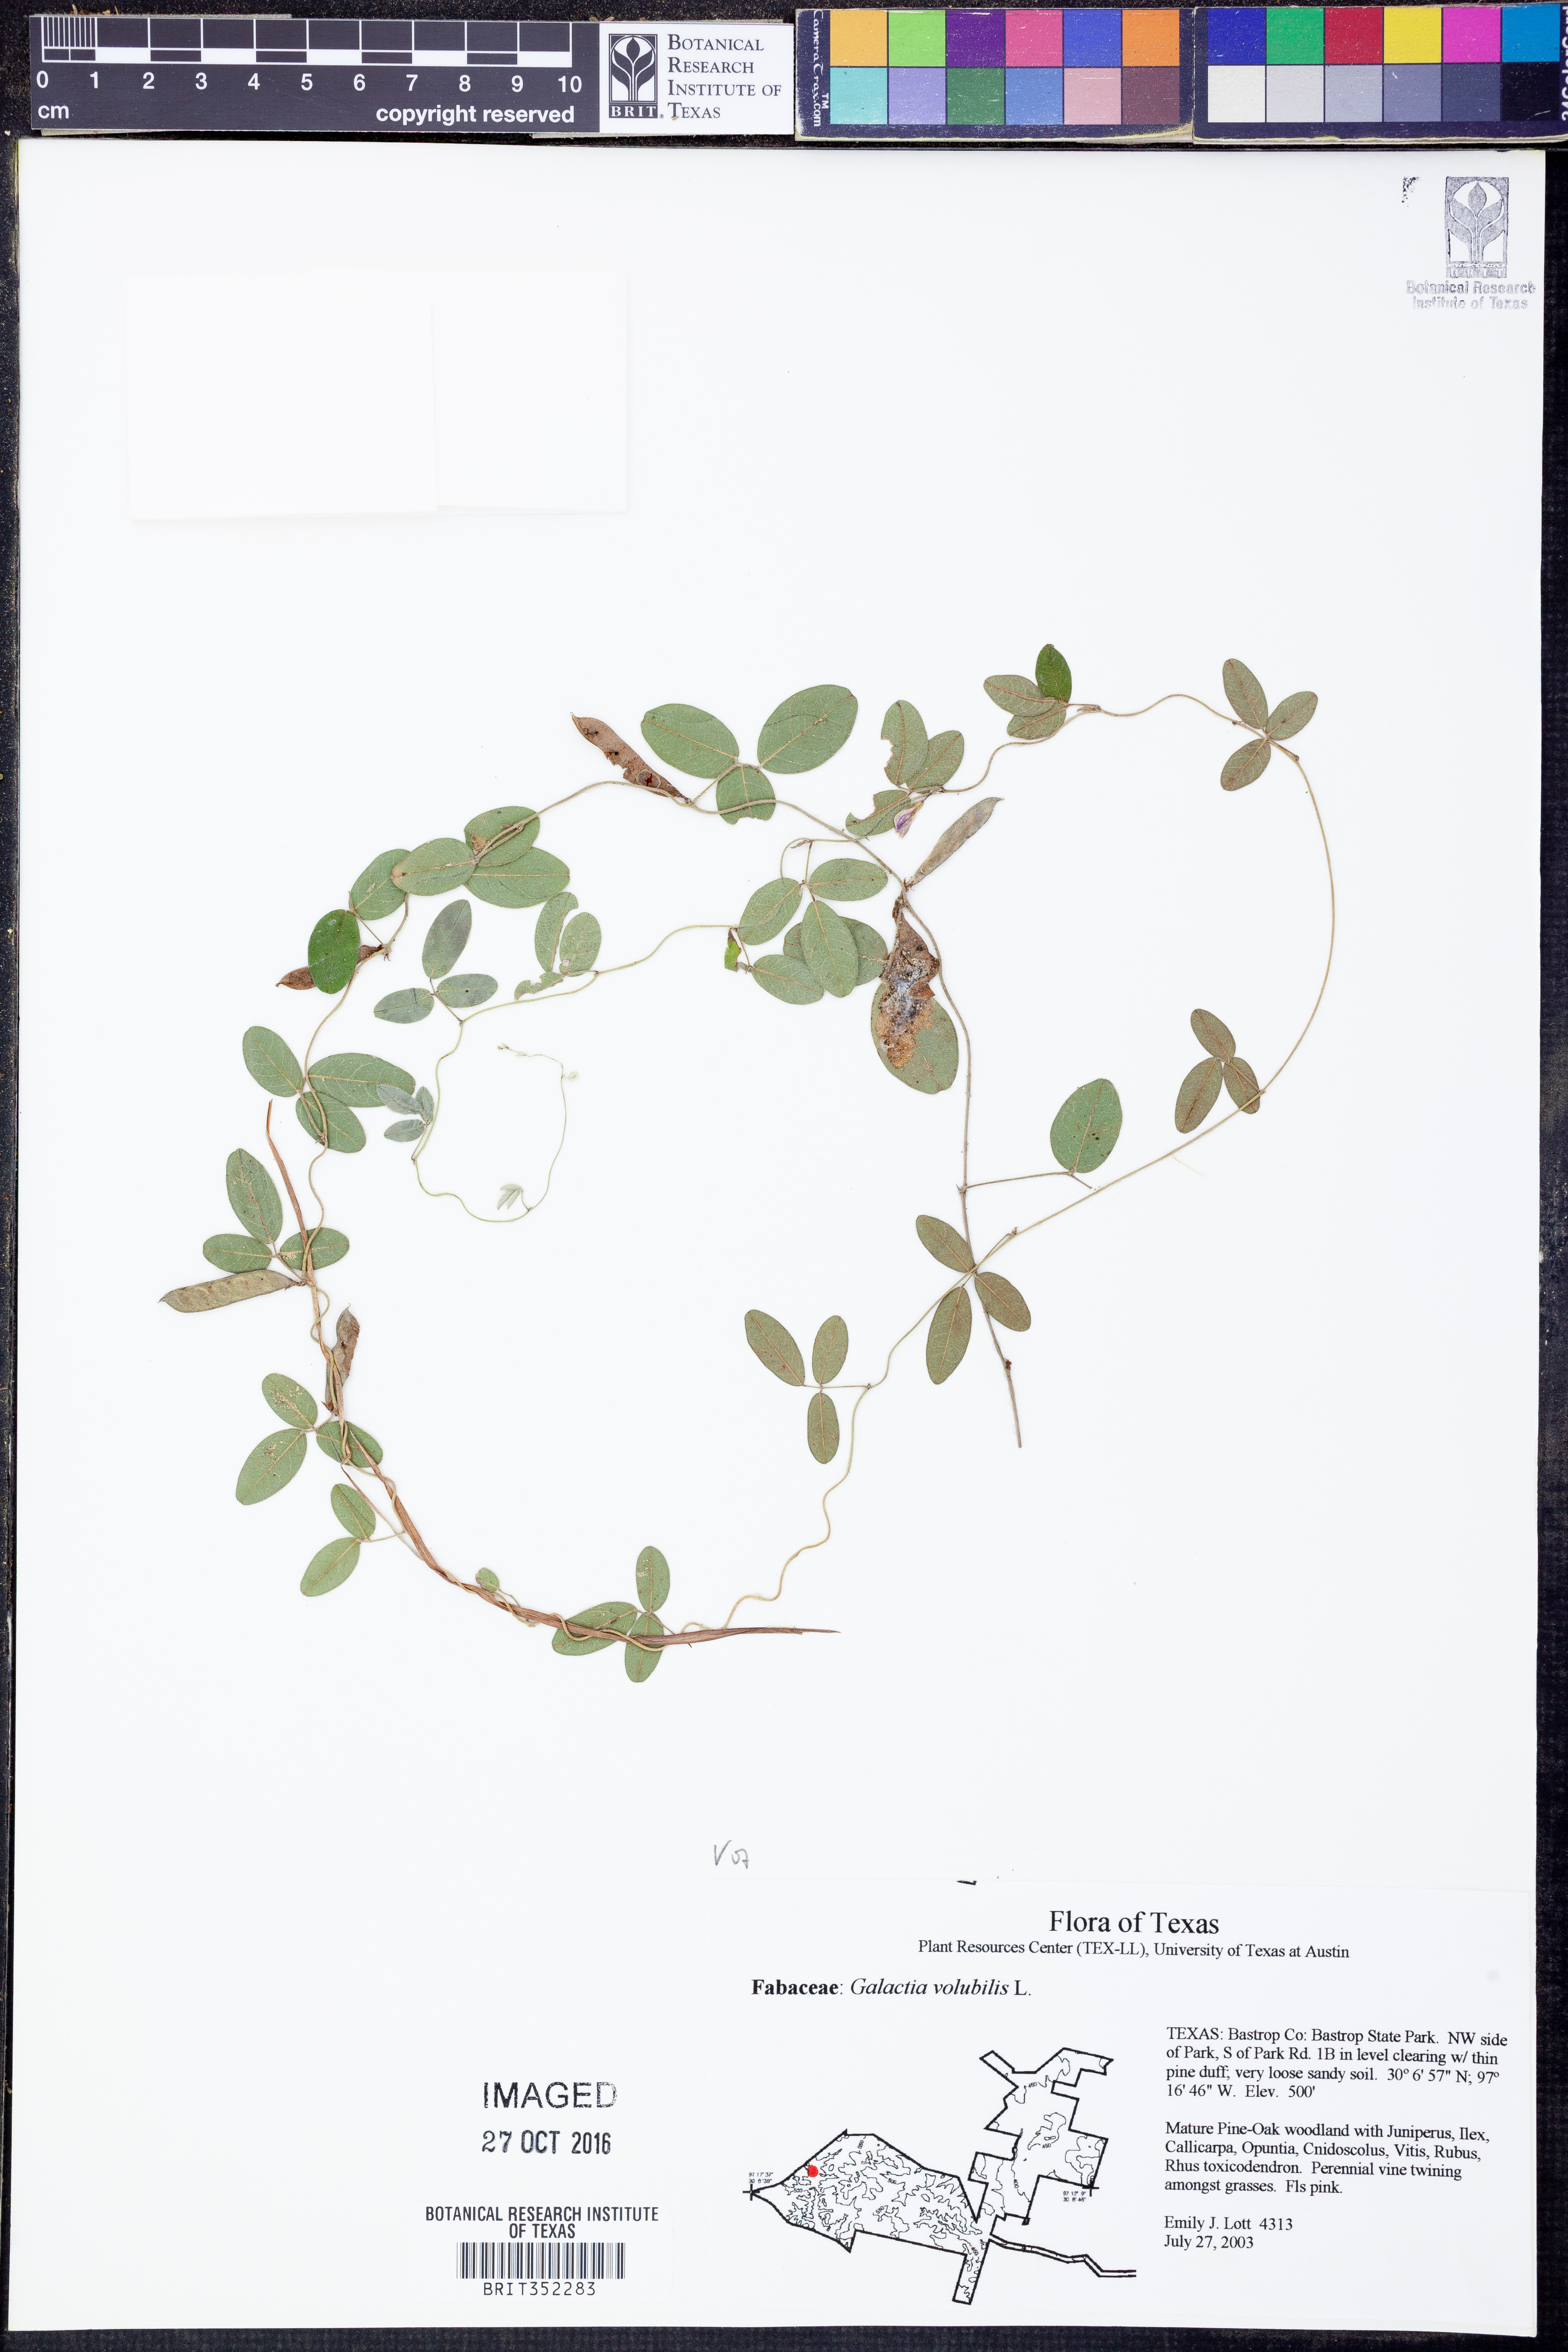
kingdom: Plantae
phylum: Tracheophyta
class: Magnoliopsida
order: Fabales
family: Fabaceae
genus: Galactia
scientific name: Galactia volubilis
